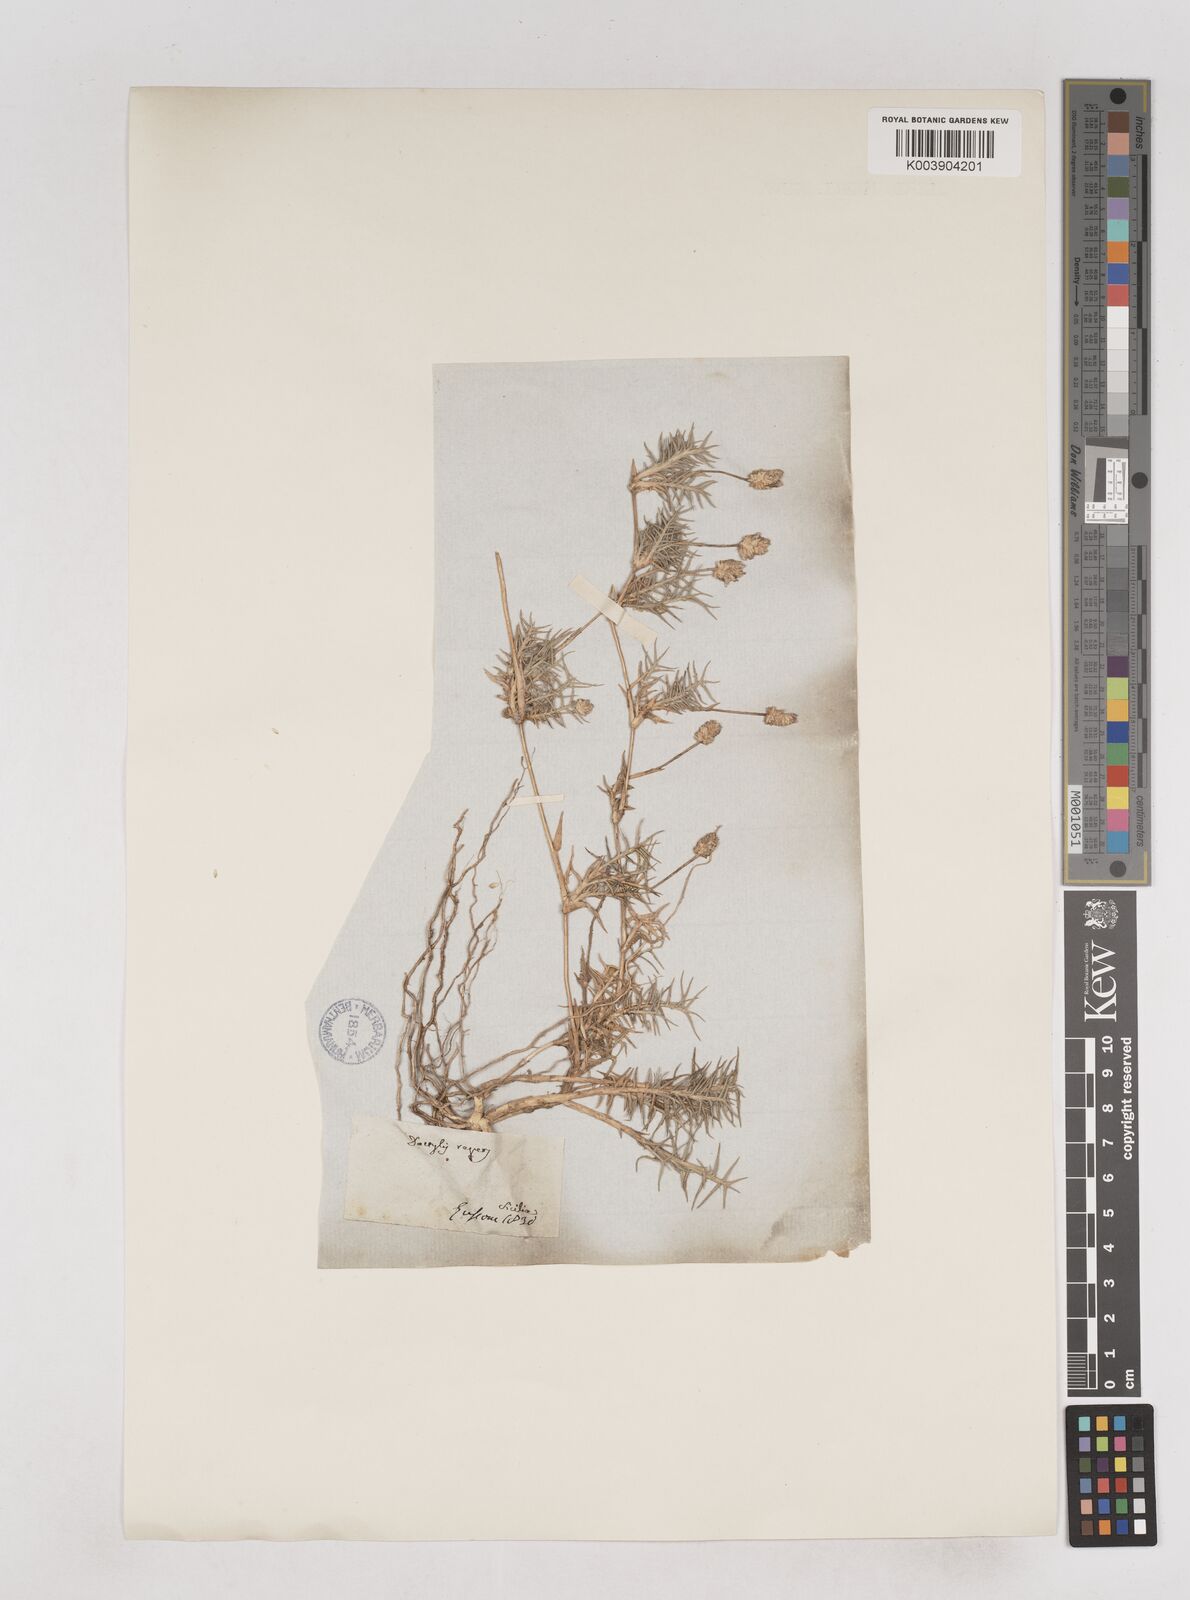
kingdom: Plantae
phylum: Tracheophyta
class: Liliopsida
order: Poales
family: Poaceae
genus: Aeluropus
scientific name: Aeluropus lagopoides
